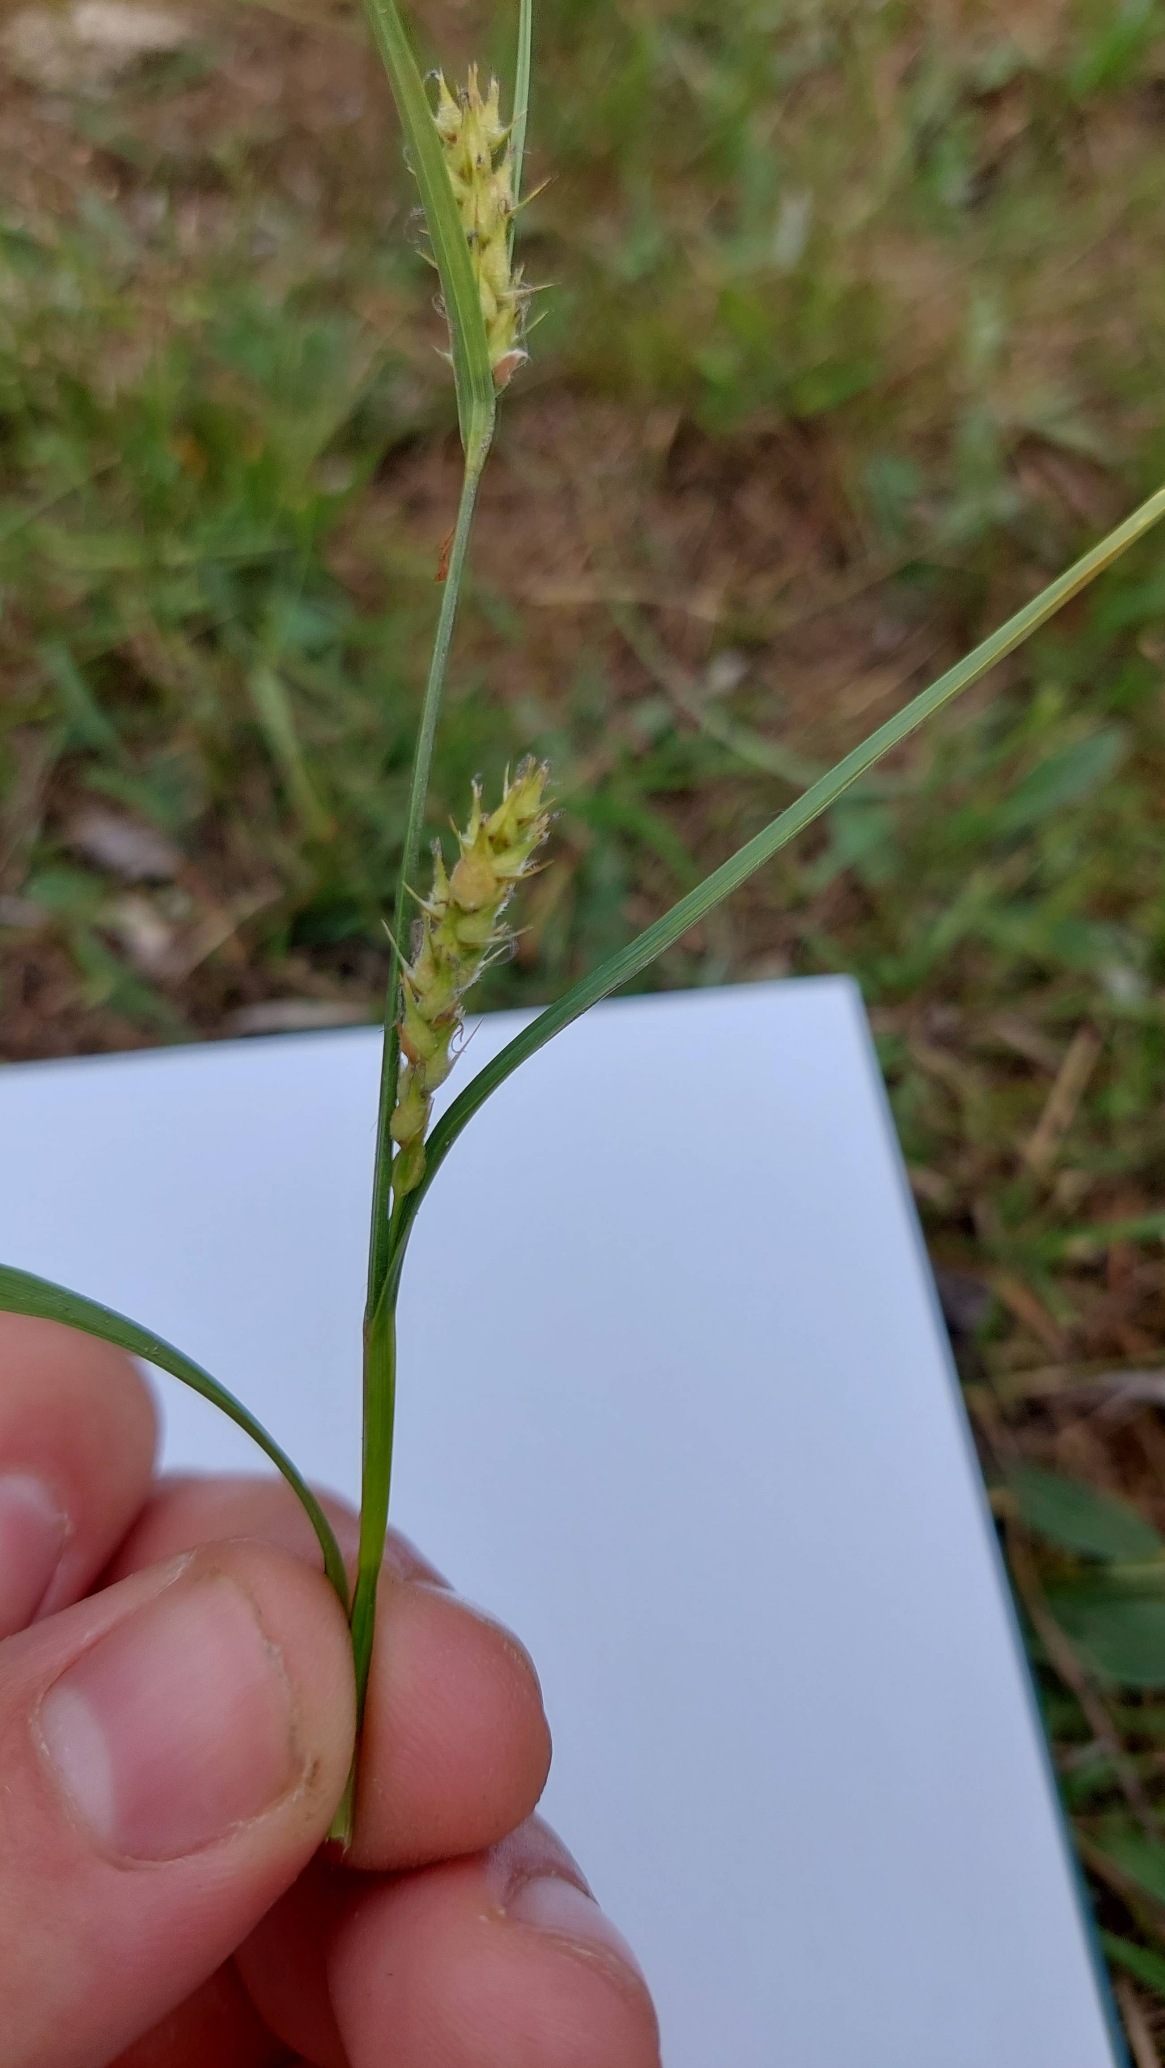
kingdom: Plantae
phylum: Tracheophyta
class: Liliopsida
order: Poales
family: Cyperaceae
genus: Carex
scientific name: Carex hirta
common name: Håret star
